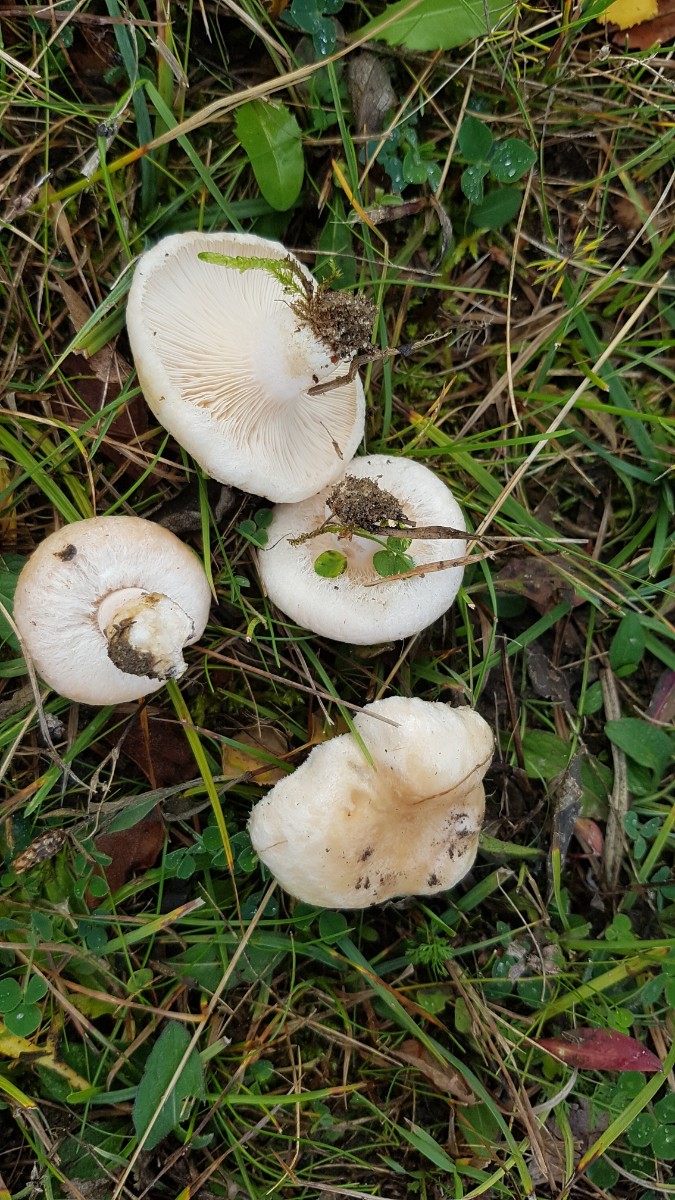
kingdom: Fungi
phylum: Basidiomycota
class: Agaricomycetes
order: Russulales
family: Russulaceae
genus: Lactarius
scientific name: Lactarius pubescens
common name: dunet mælkehat
